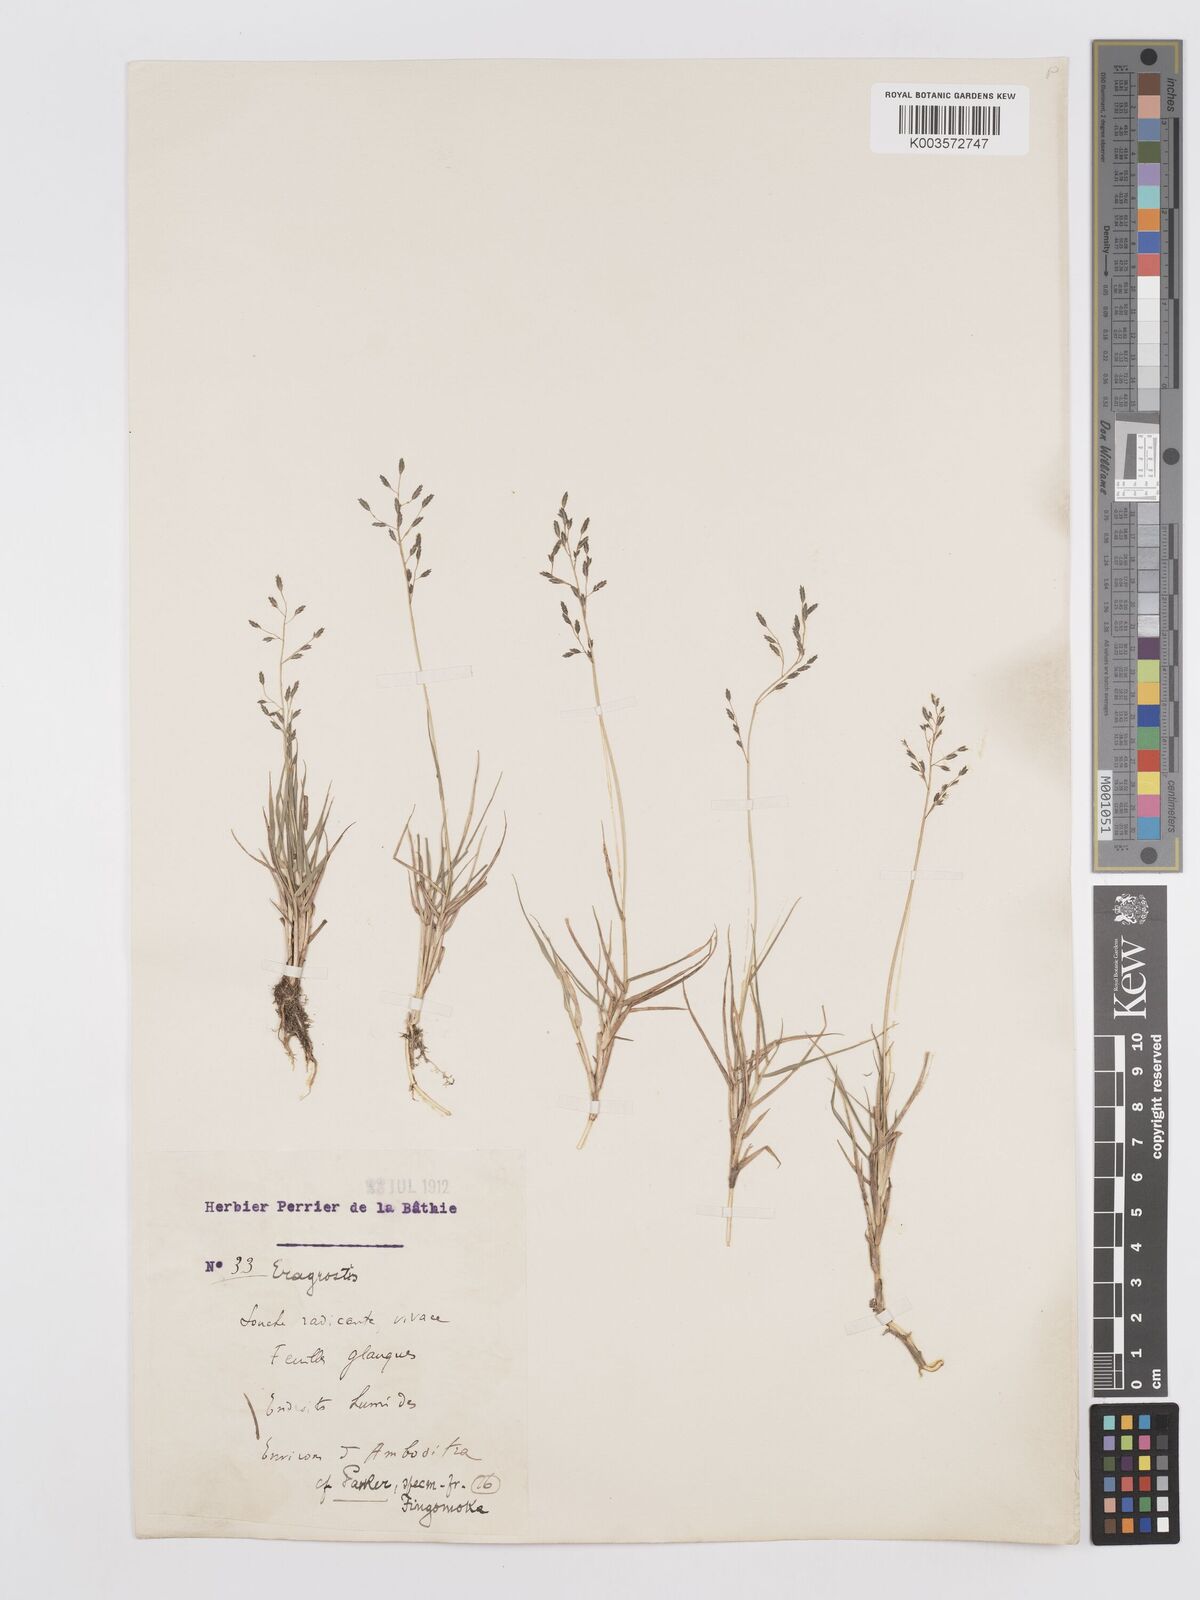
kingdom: Plantae
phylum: Tracheophyta
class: Liliopsida
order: Poales
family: Poaceae
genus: Eragrostis
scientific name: Eragrostis
